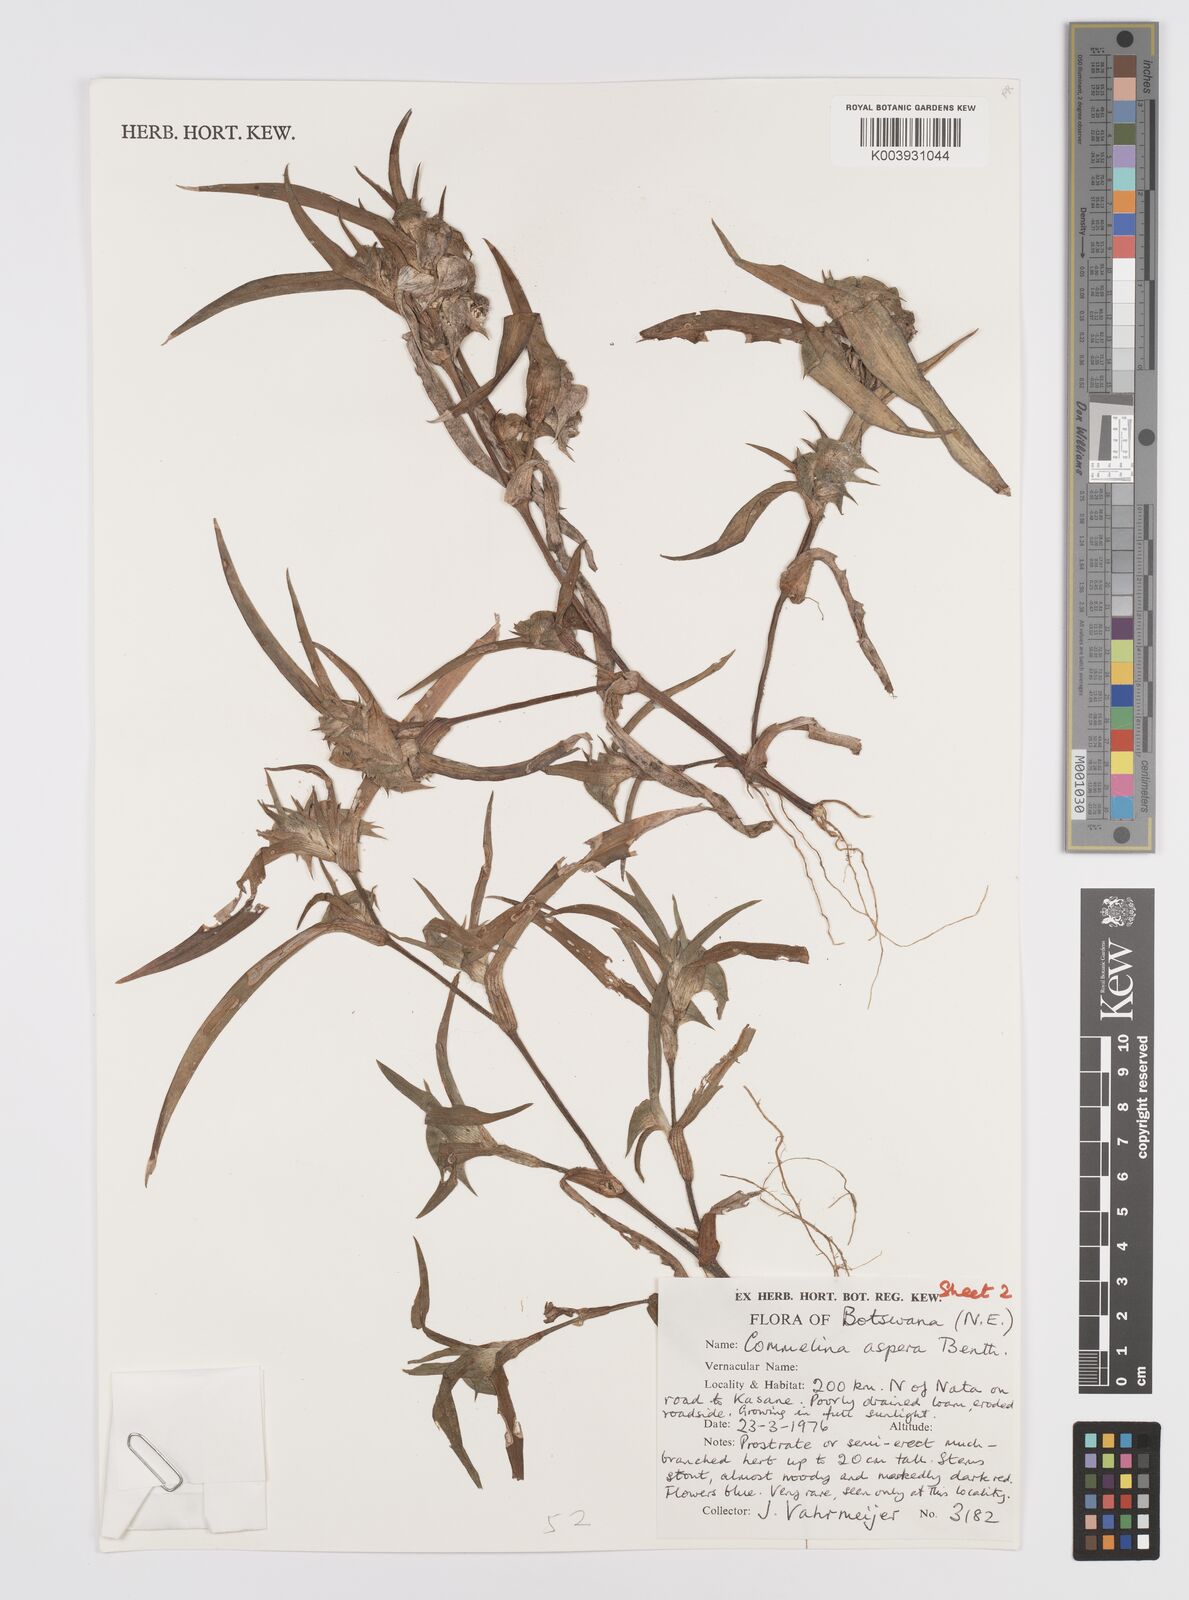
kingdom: Plantae
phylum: Tracheophyta
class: Liliopsida
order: Commelinales
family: Commelinaceae
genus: Commelina
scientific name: Commelina aspera
